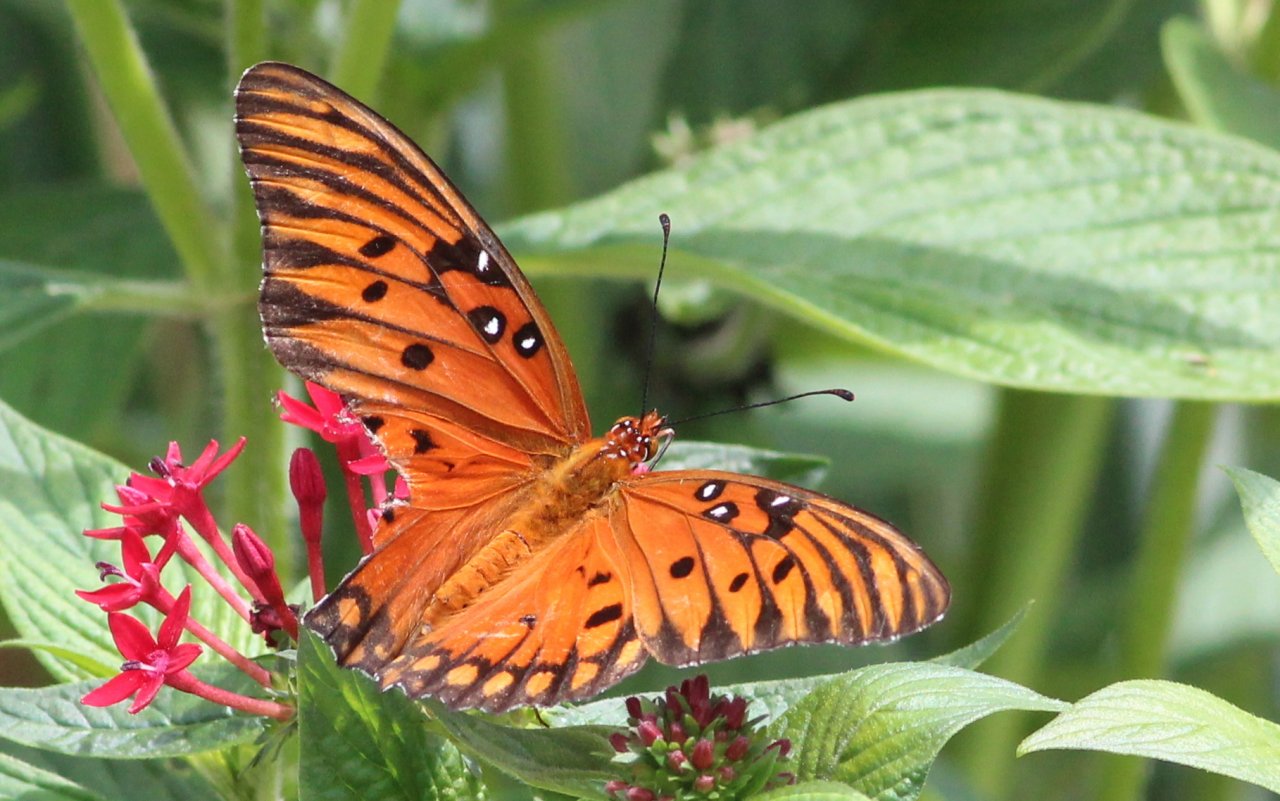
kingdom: Animalia
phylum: Arthropoda
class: Insecta
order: Lepidoptera
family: Nymphalidae
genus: Dione
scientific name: Dione vanillae
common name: Gulf Fritillary
